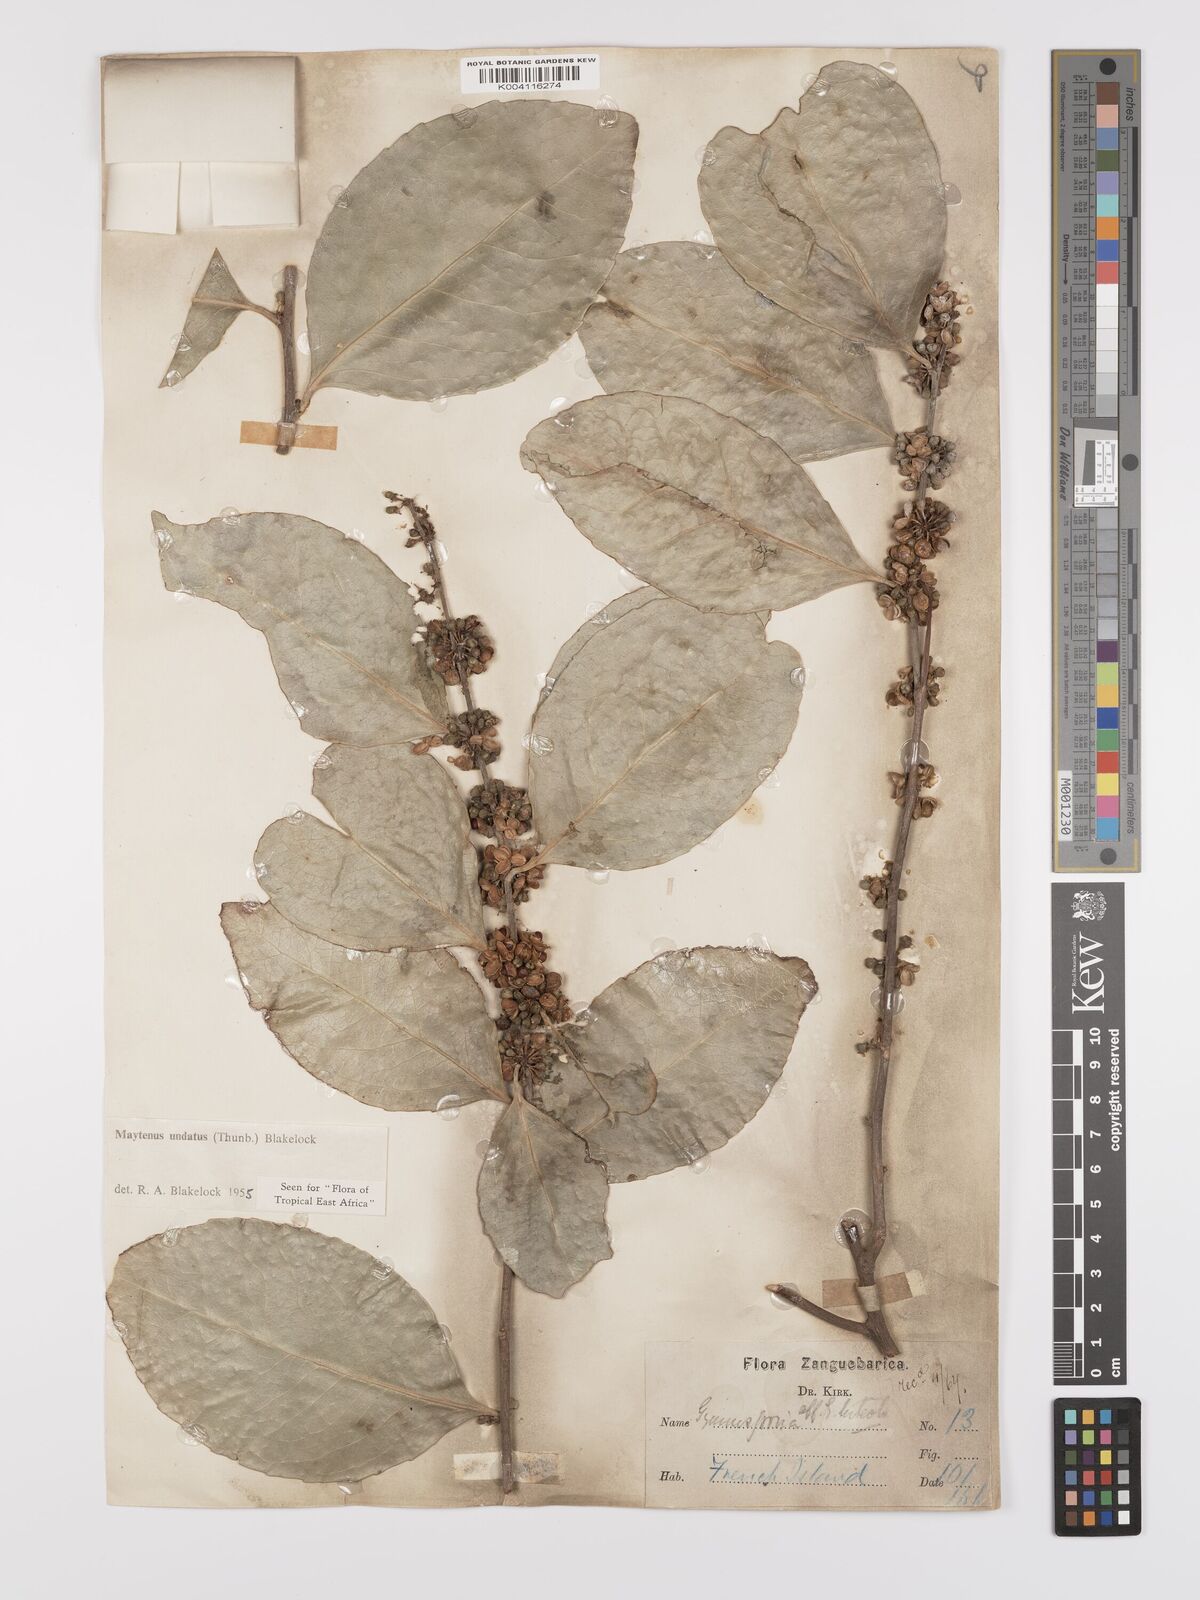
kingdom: Plantae
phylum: Tracheophyta
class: Magnoliopsida
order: Celastrales
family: Celastraceae
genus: Gymnosporia
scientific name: Gymnosporia undata
